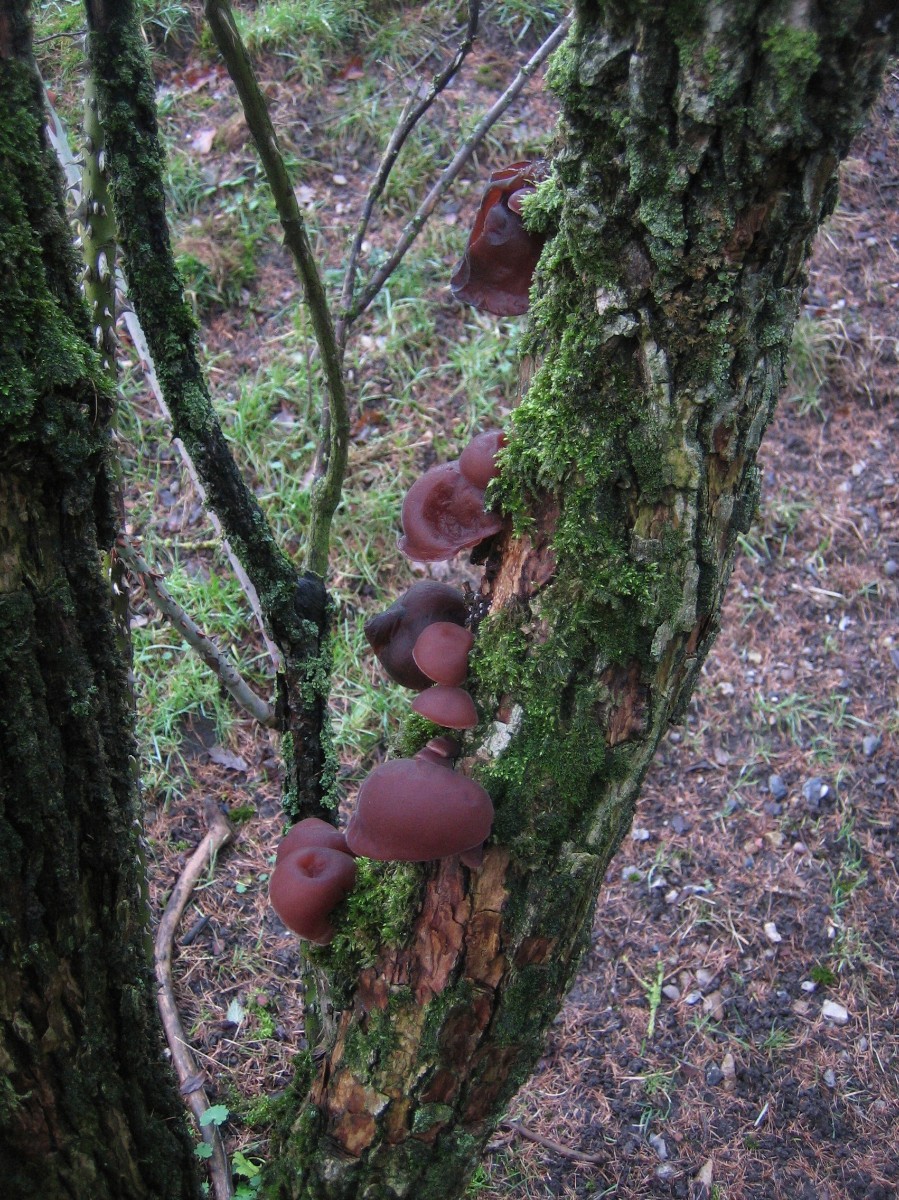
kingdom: Fungi
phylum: Basidiomycota
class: Agaricomycetes
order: Auriculariales
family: Auriculariaceae
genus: Auricularia
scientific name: Auricularia auricula-judae
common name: almindelig judasøre
